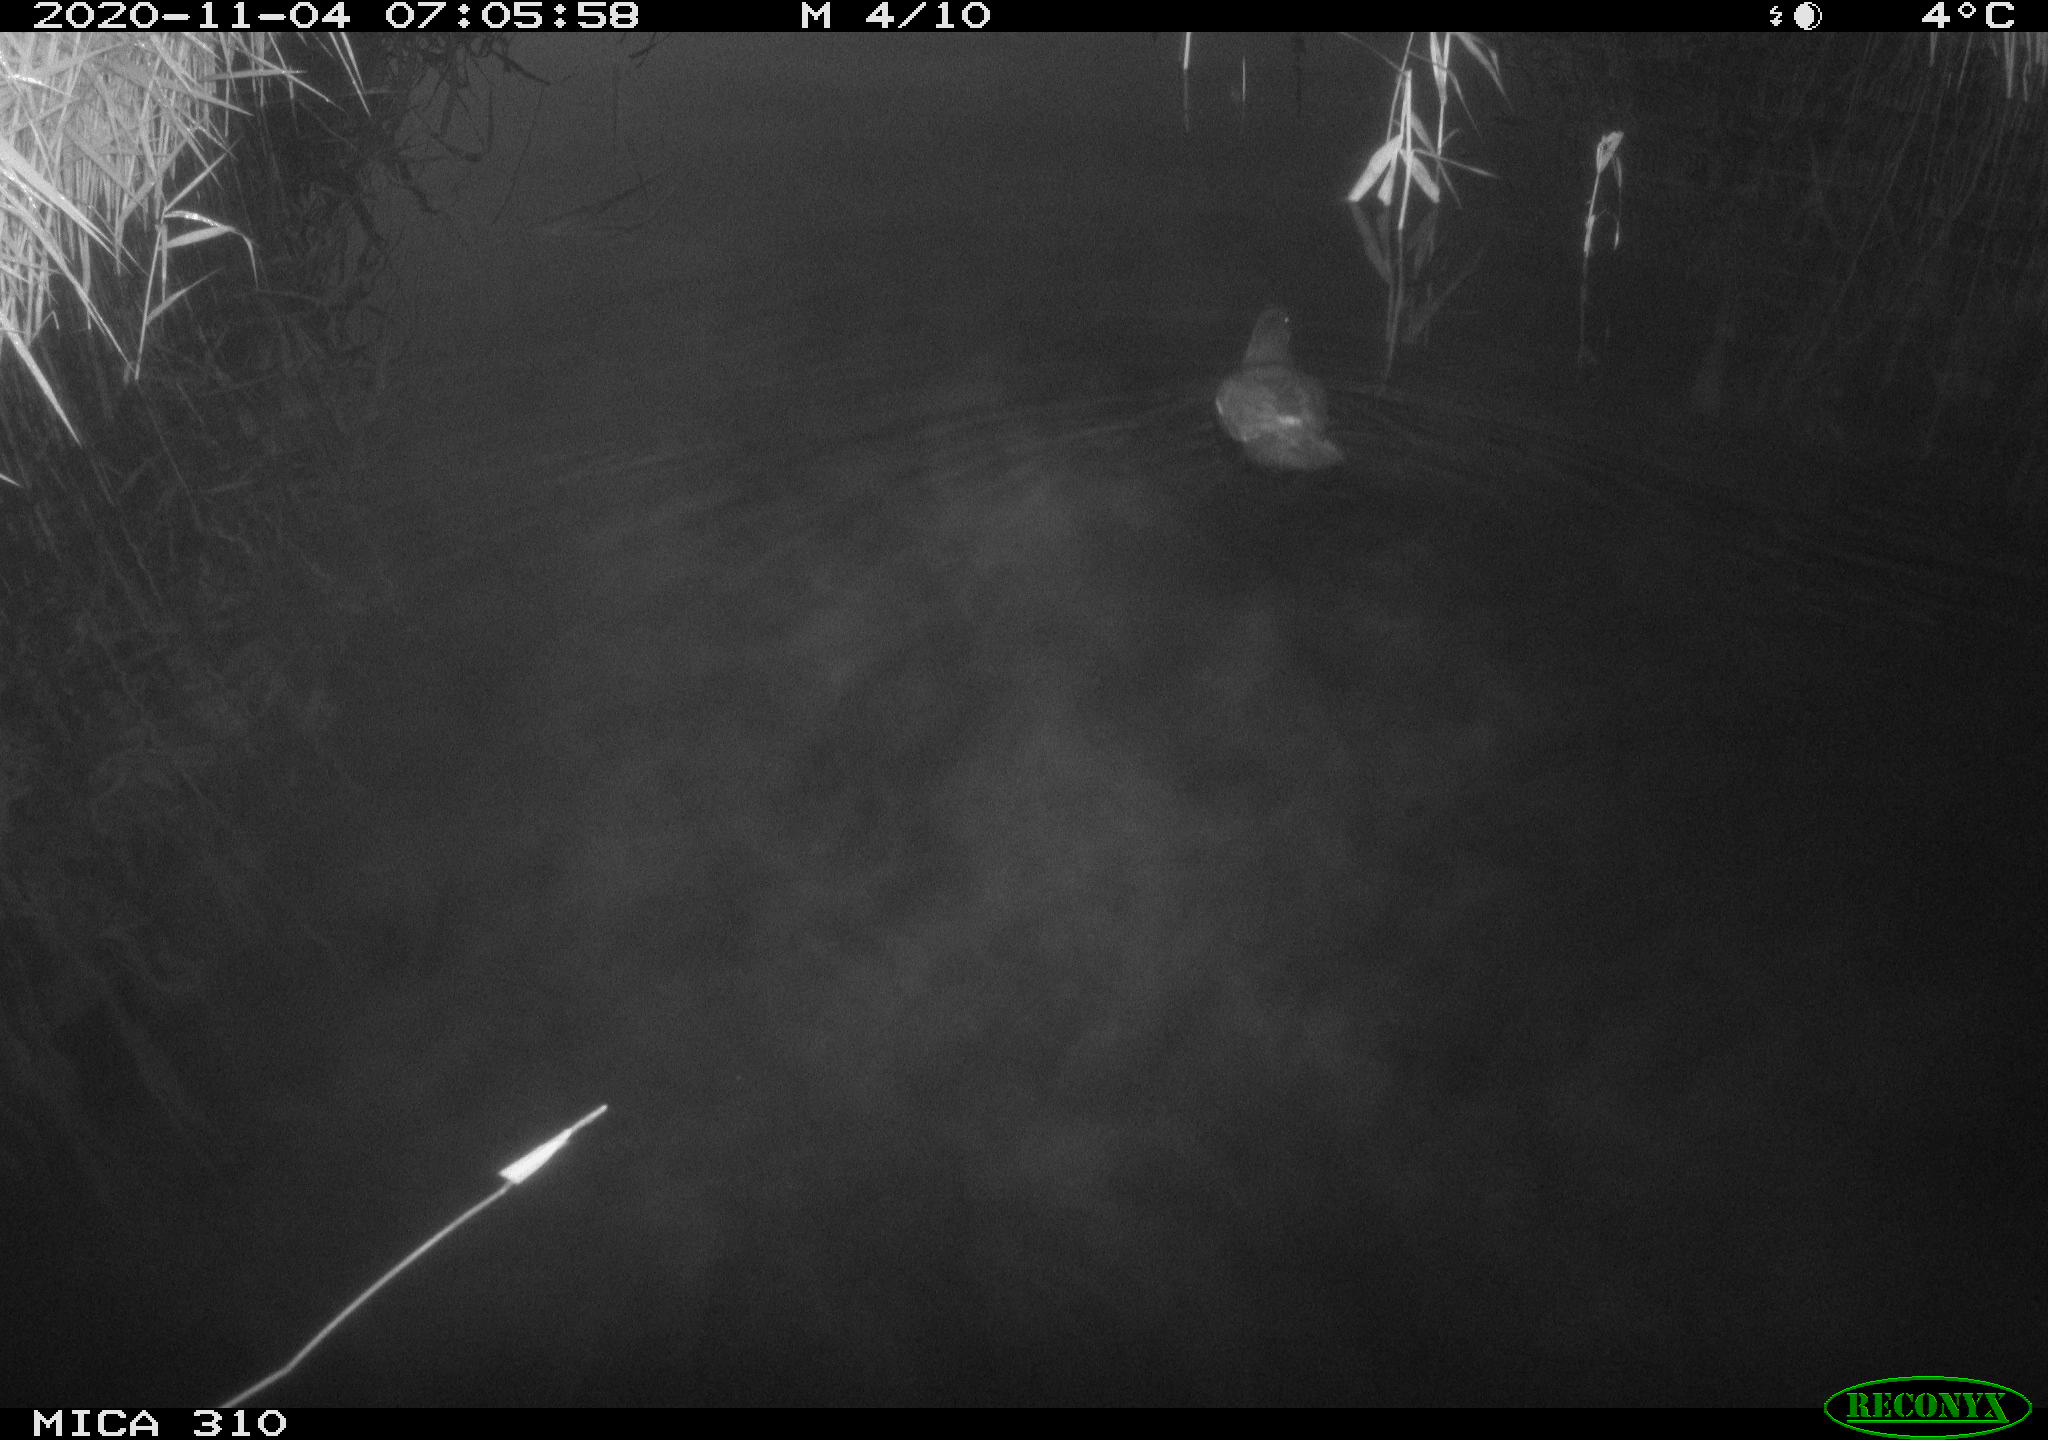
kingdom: Animalia
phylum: Chordata
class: Aves
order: Gruiformes
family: Rallidae
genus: Gallinula
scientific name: Gallinula chloropus
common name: Common moorhen
